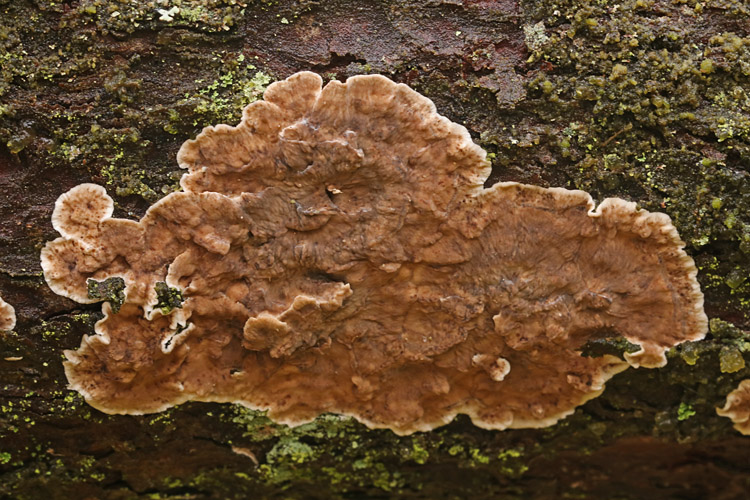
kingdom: Fungi
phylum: Basidiomycota
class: Agaricomycetes
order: Russulales
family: Stereaceae
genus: Stereum
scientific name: Stereum sanguinolentum
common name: blødende lædersvamp
